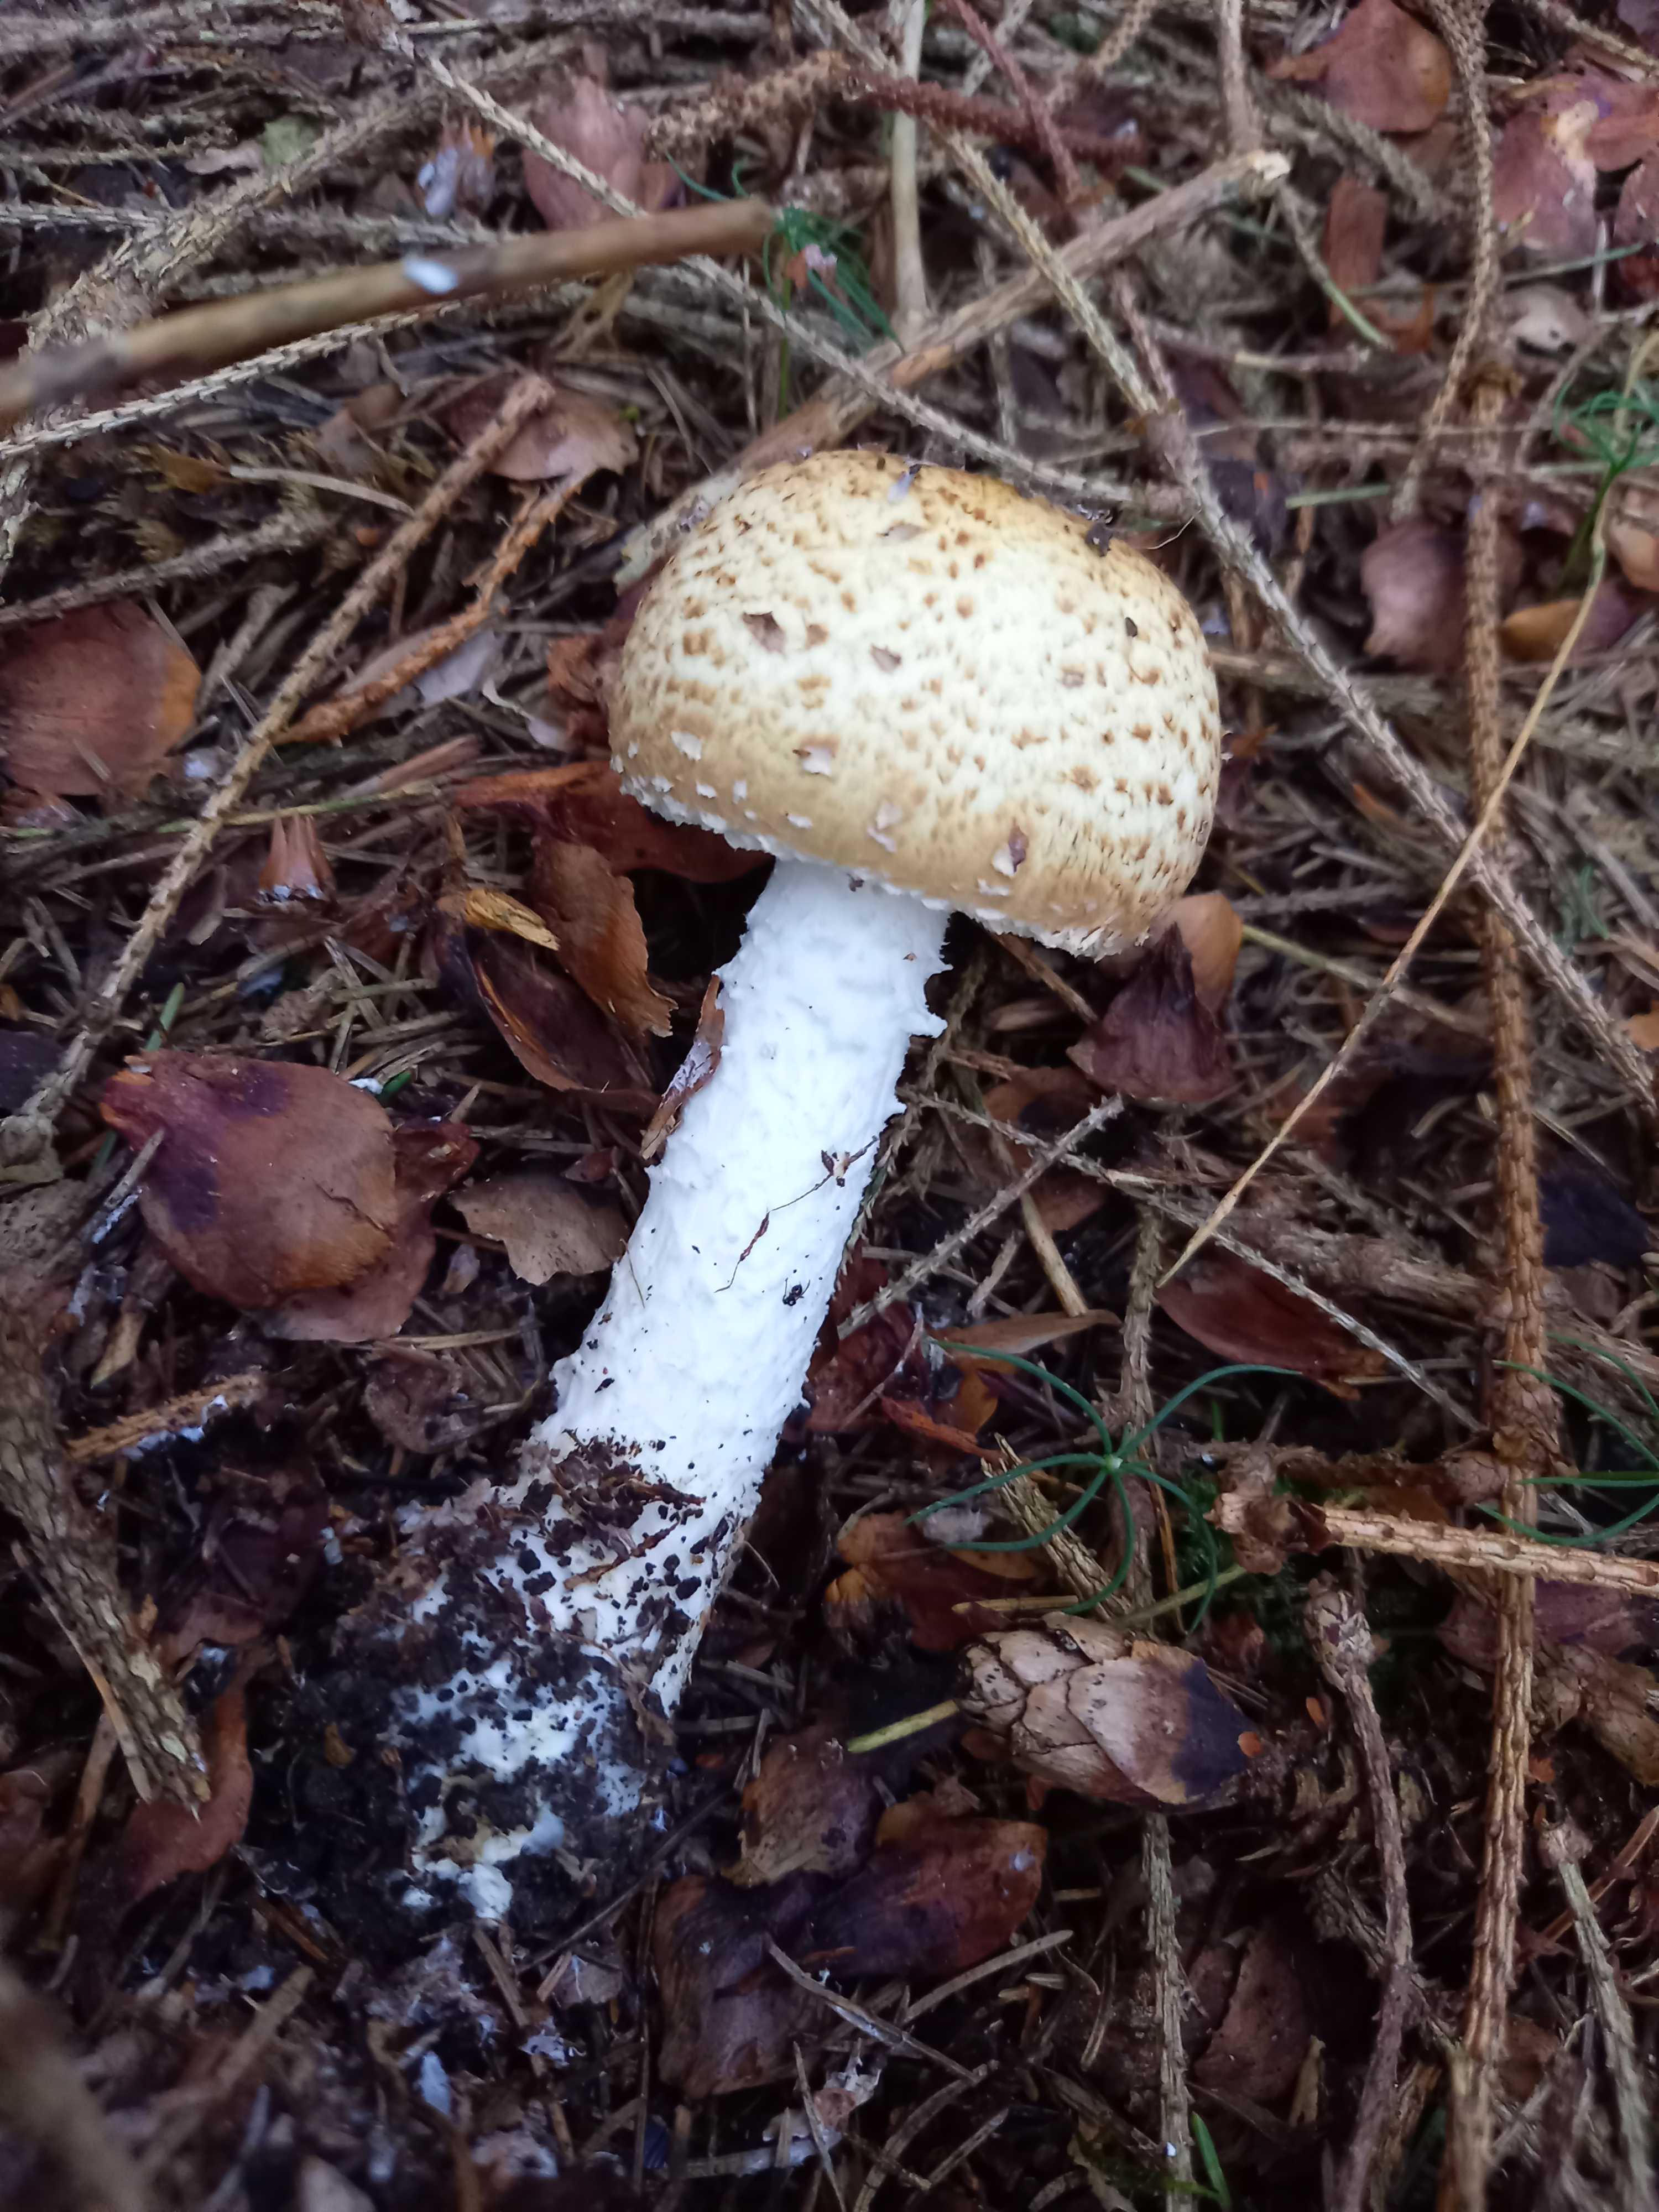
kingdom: Fungi
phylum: Basidiomycota
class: Agaricomycetes
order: Agaricales
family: Agaricaceae
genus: Agaricus
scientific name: Agaricus augustus
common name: prægtig champignon
